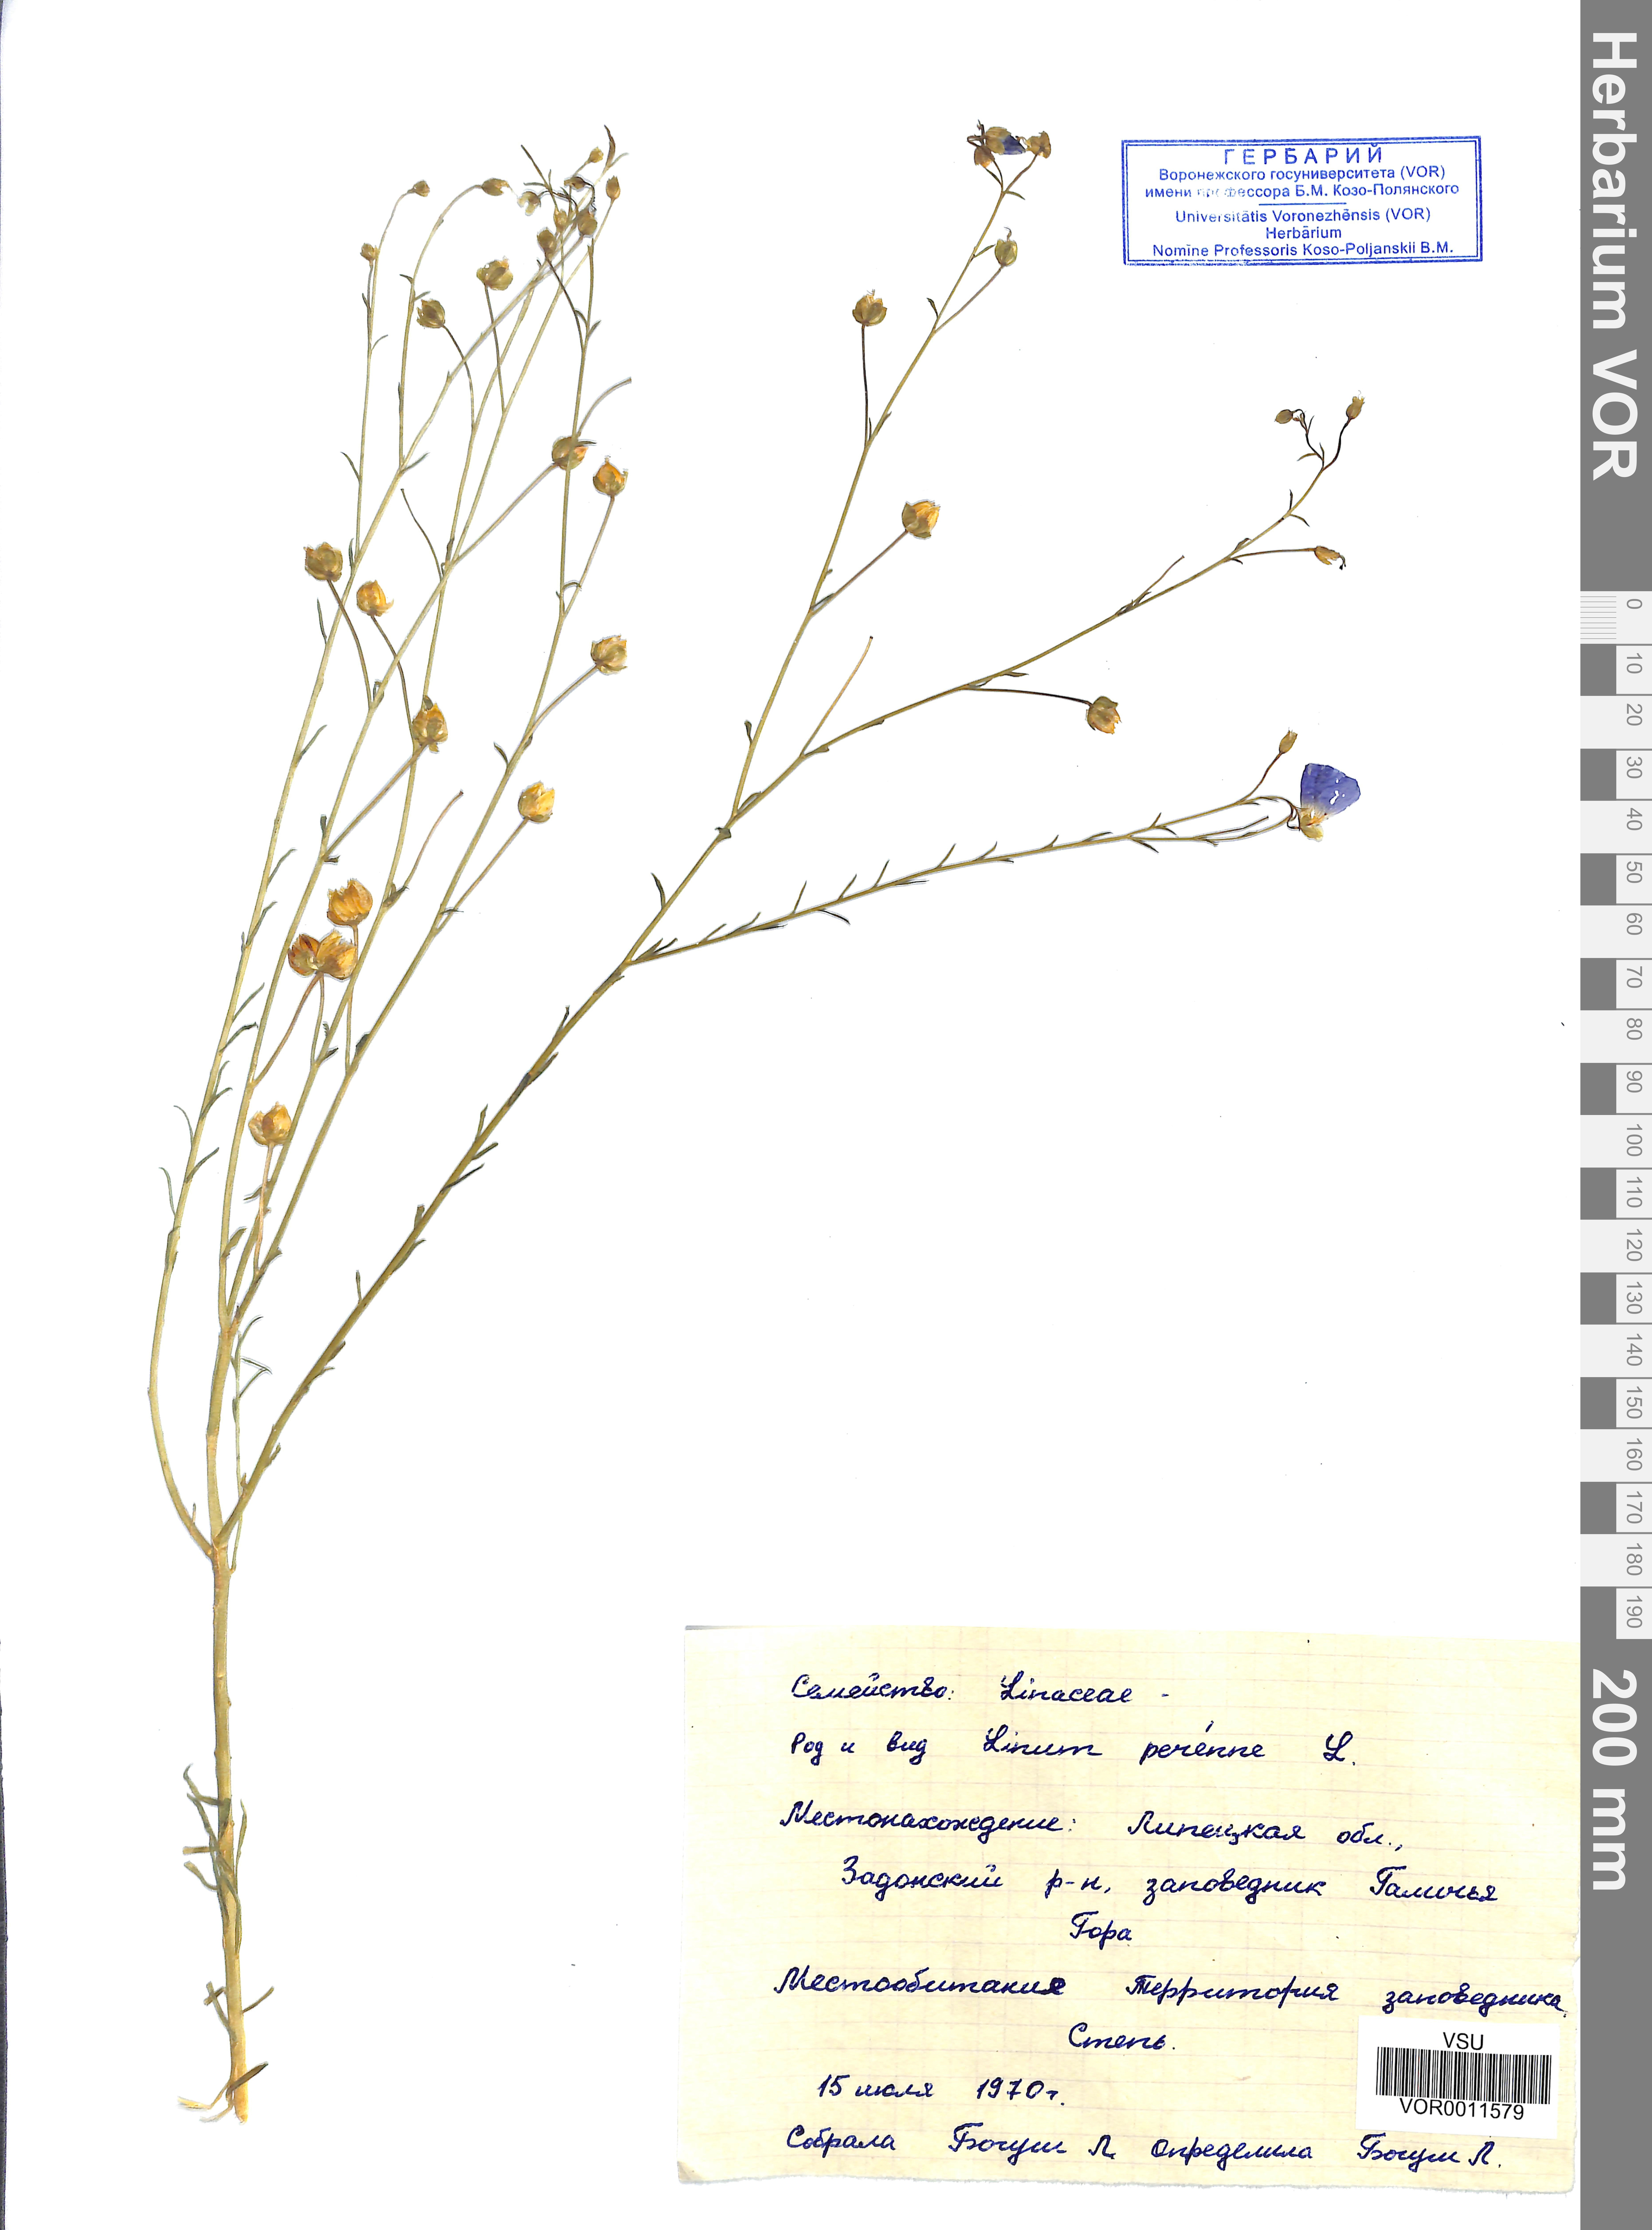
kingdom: Plantae
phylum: Tracheophyta
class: Magnoliopsida
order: Malpighiales
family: Linaceae
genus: Linum
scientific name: Linum perenne
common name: Blue flax
